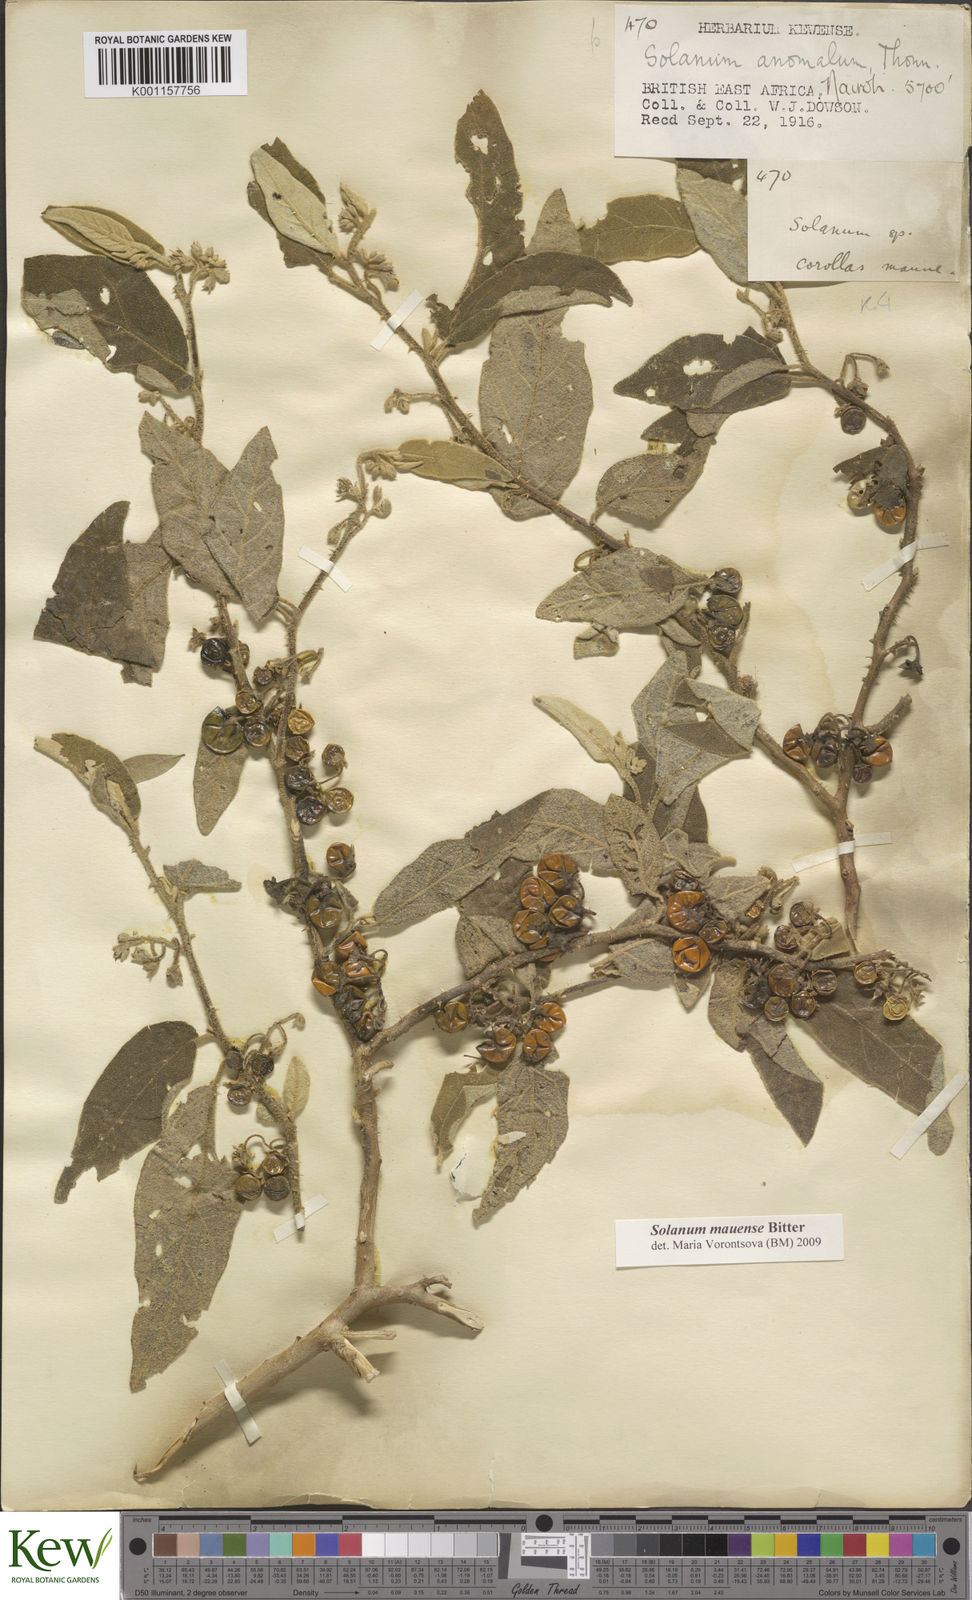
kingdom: Plantae
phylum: Tracheophyta
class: Magnoliopsida
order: Solanales
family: Solanaceae
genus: Solanum
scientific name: Solanum mauense
